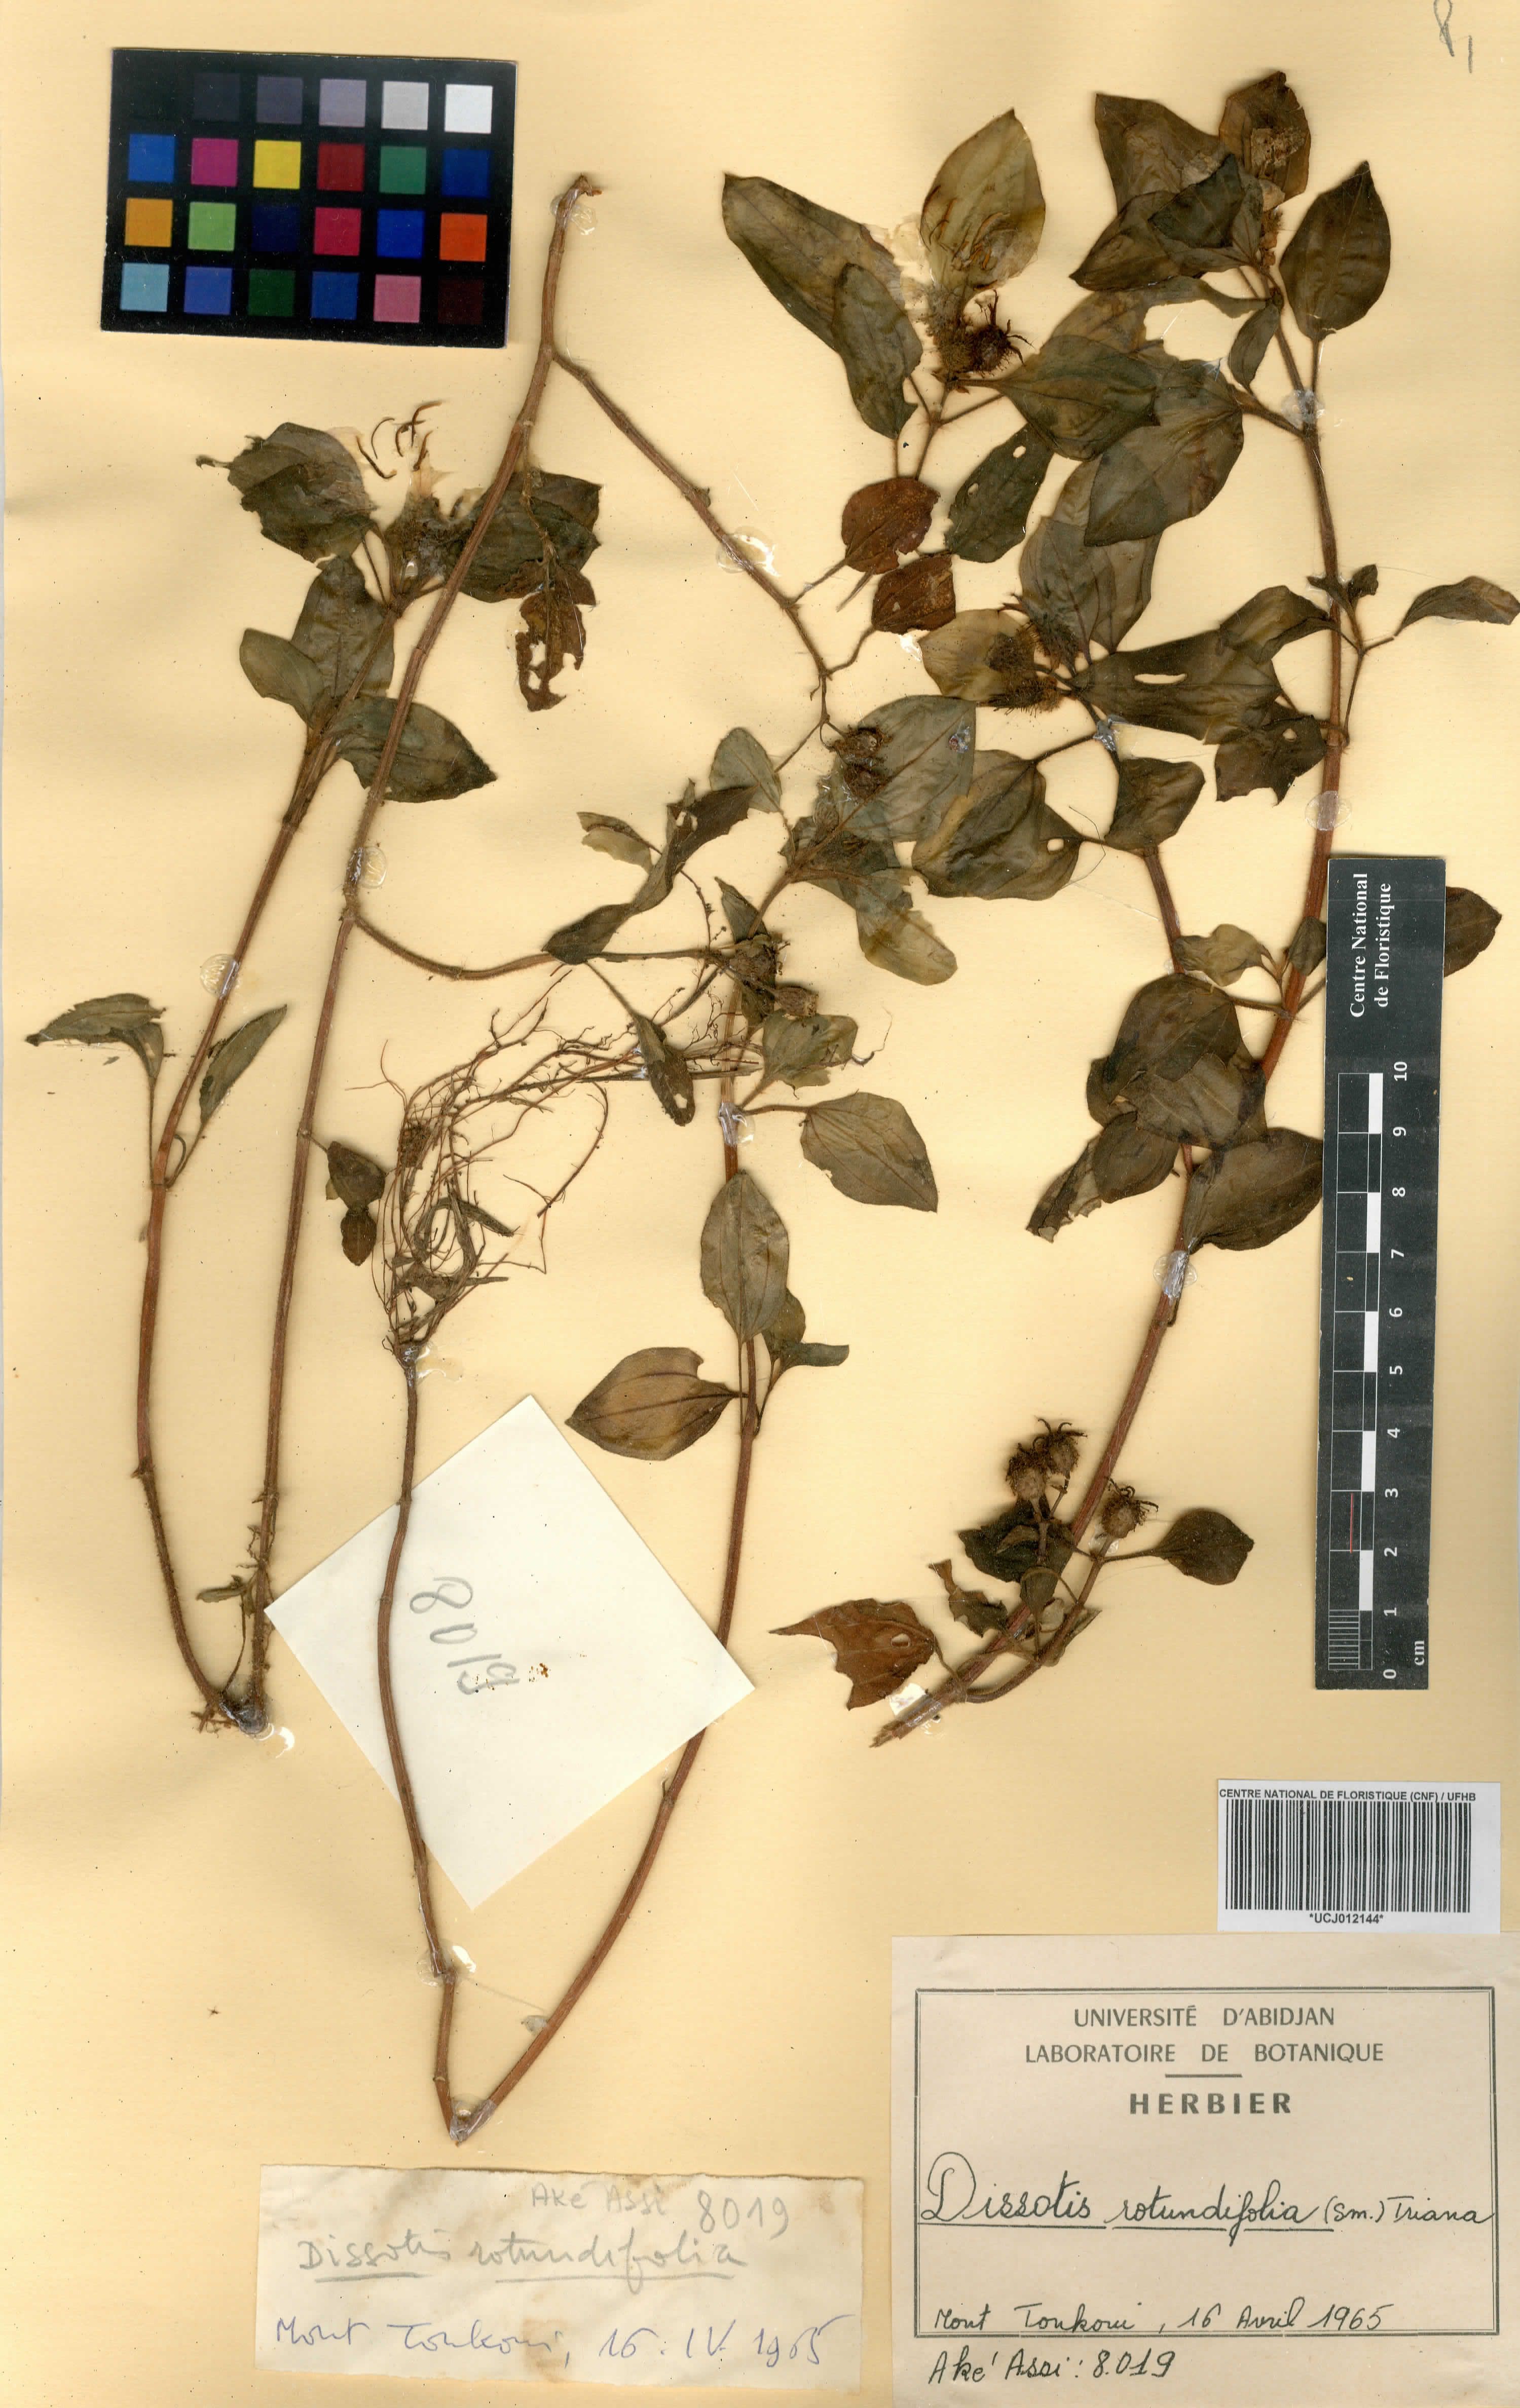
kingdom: Plantae
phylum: Tracheophyta
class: Magnoliopsida
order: Myrtales
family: Melastomataceae
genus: Heterotis
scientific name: Heterotis rotundifolia
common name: Pinklady
